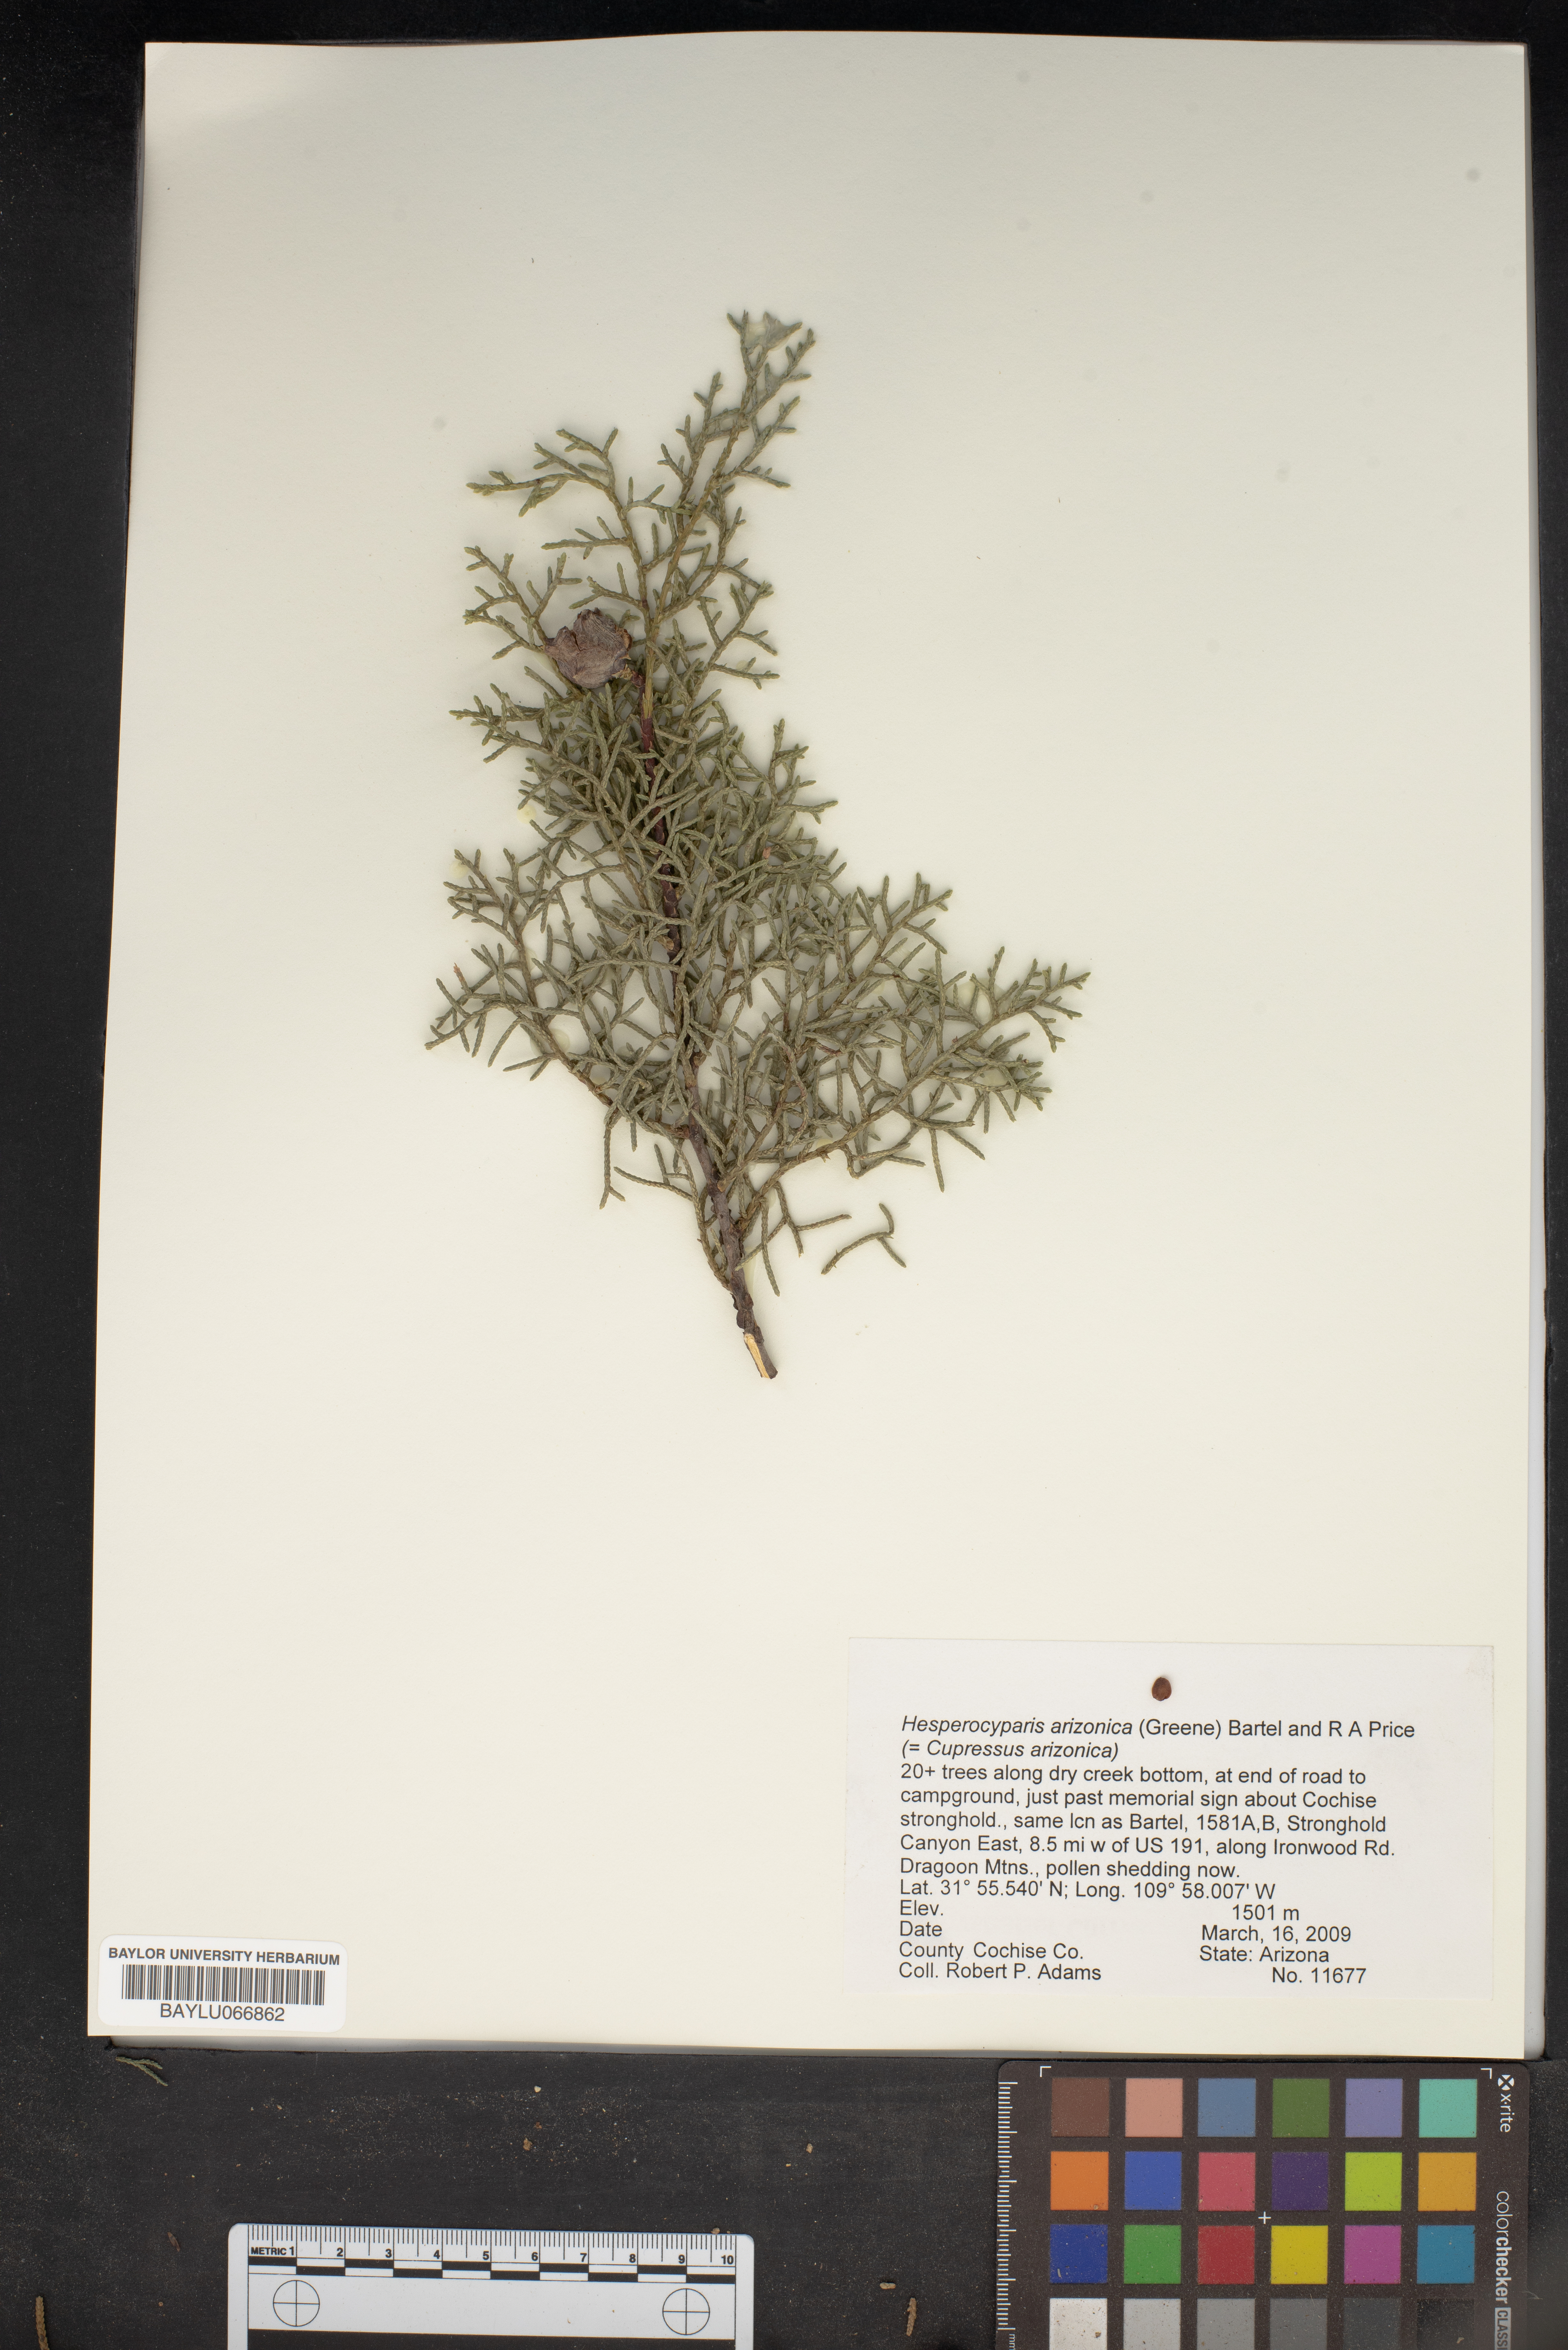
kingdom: Plantae
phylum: Tracheophyta
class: Pinopsida
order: Pinales
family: Cupressaceae
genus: Cupressus
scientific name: Cupressus arizonica
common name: Arizona cypress
